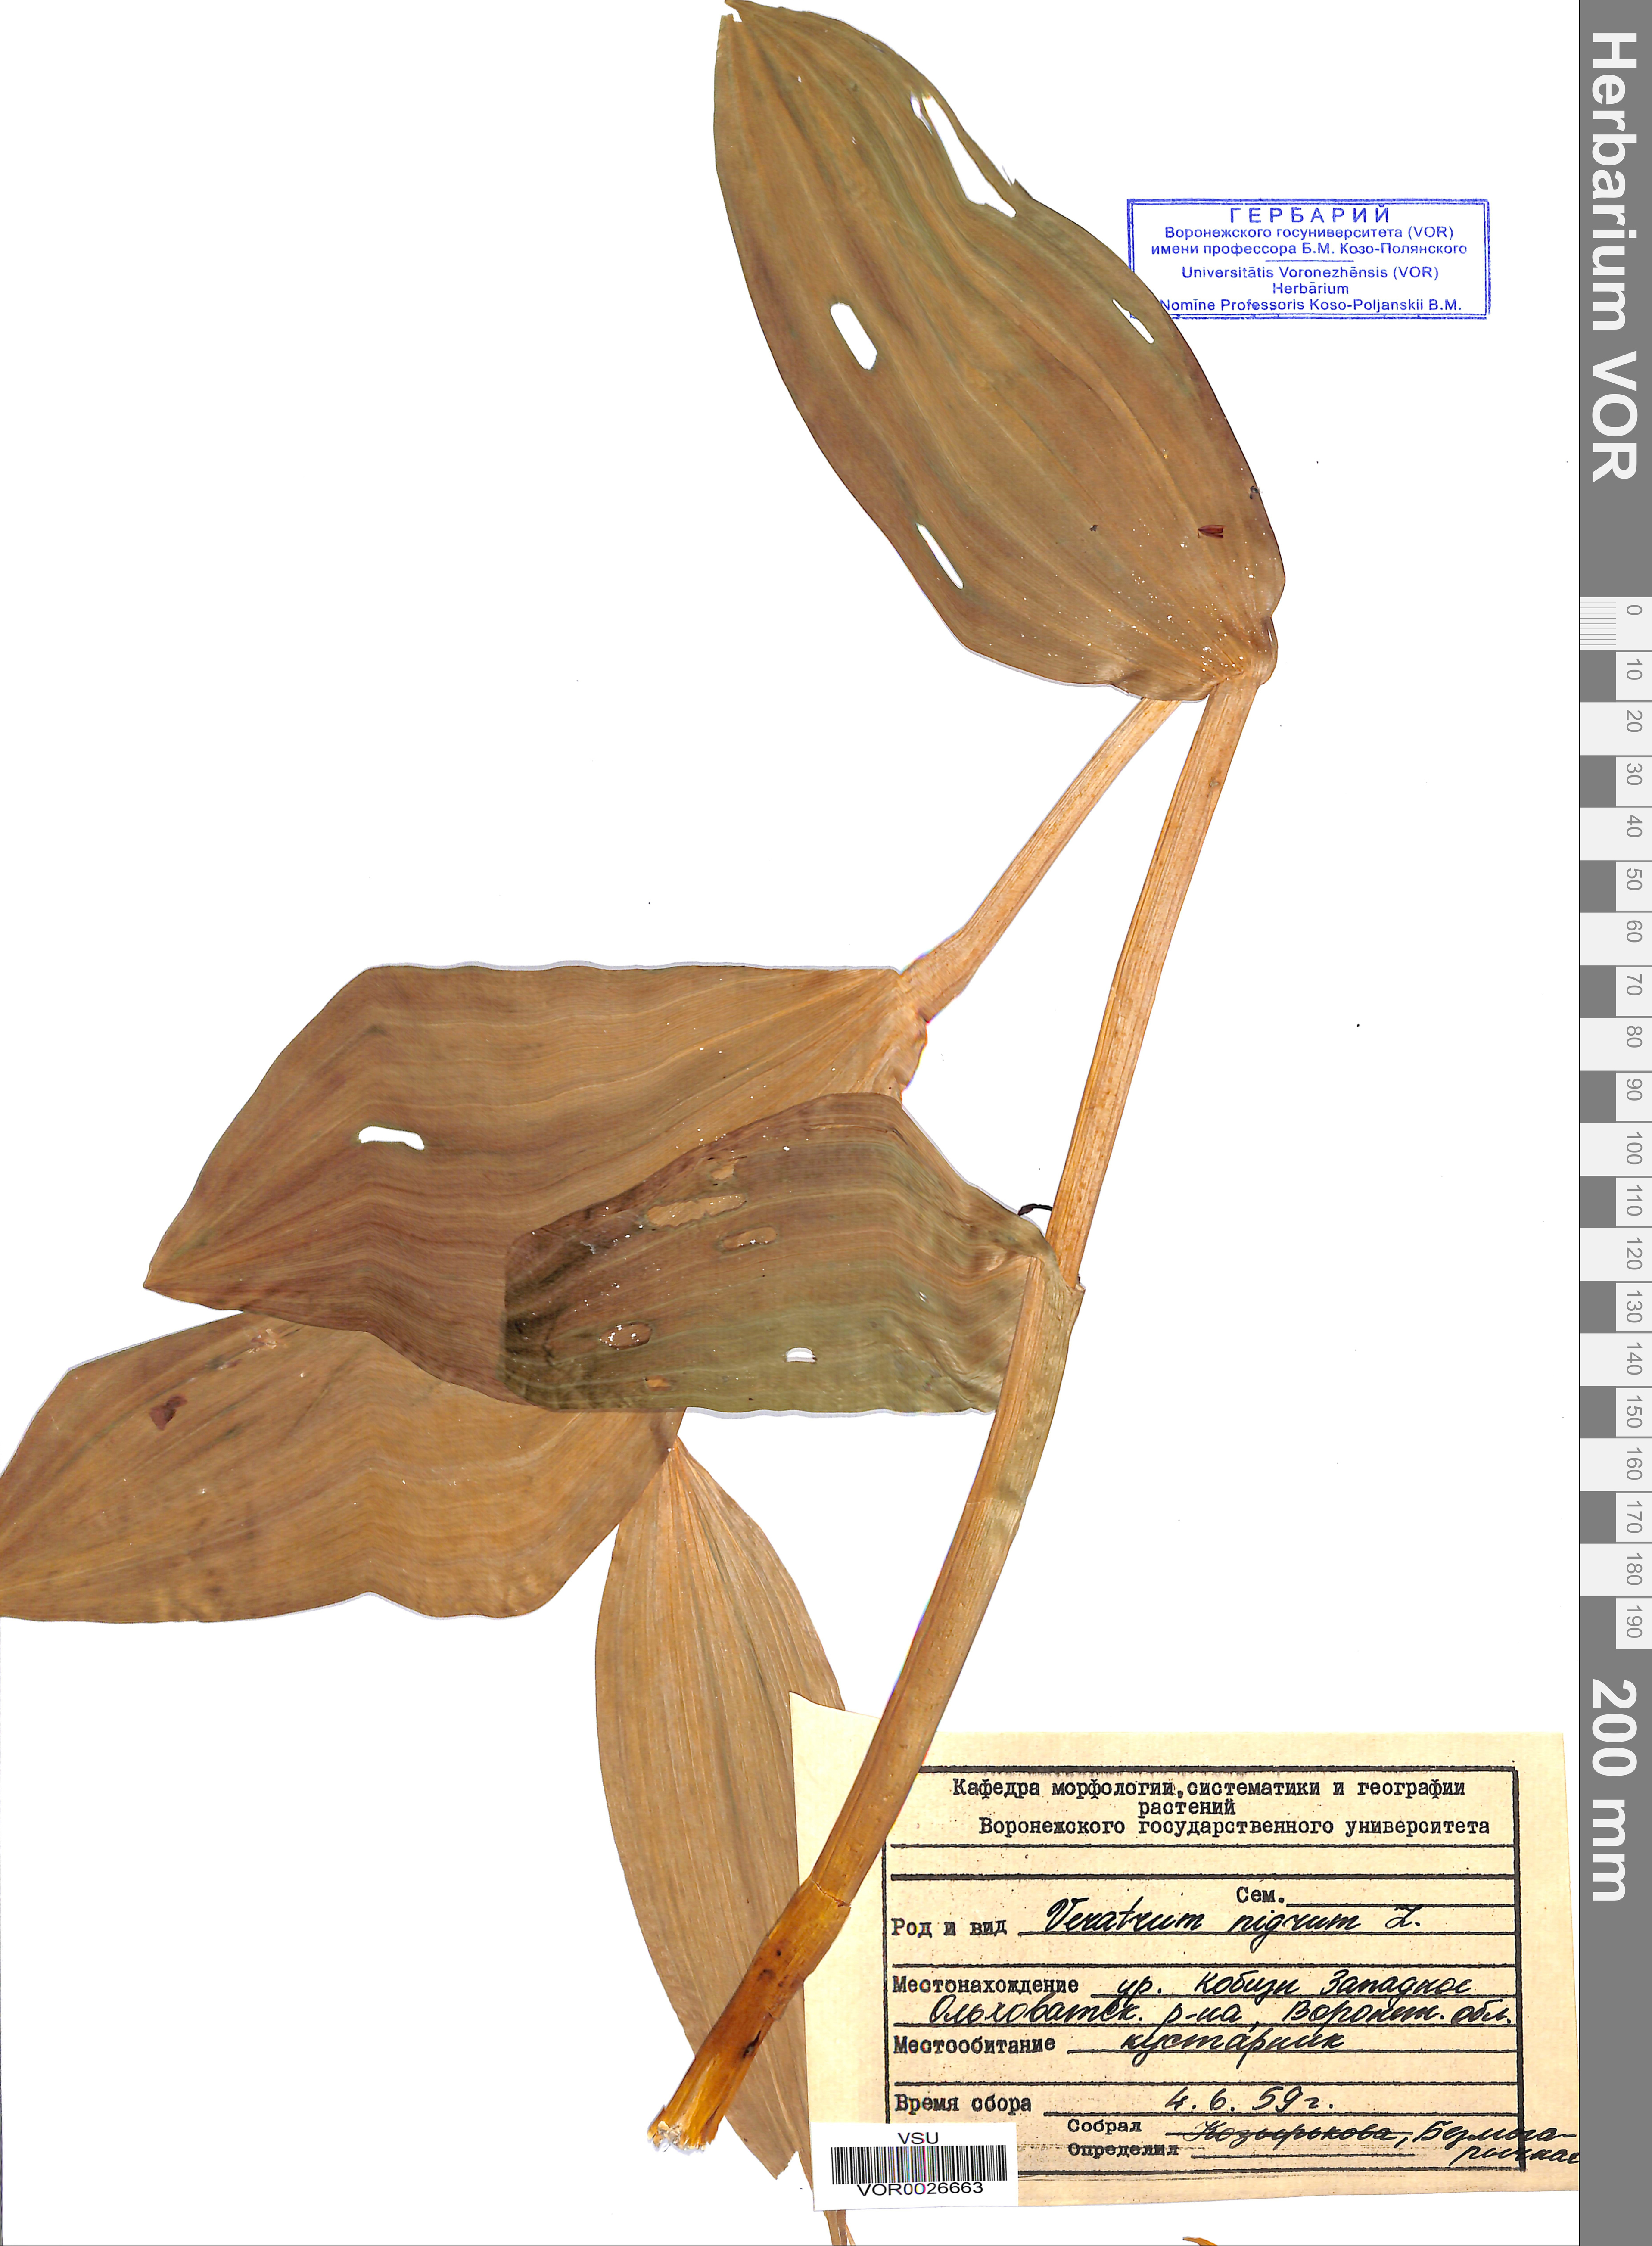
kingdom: Plantae
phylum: Tracheophyta
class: Liliopsida
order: Liliales
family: Melanthiaceae
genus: Veratrum
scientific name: Veratrum nigrum
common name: Black veratrum
